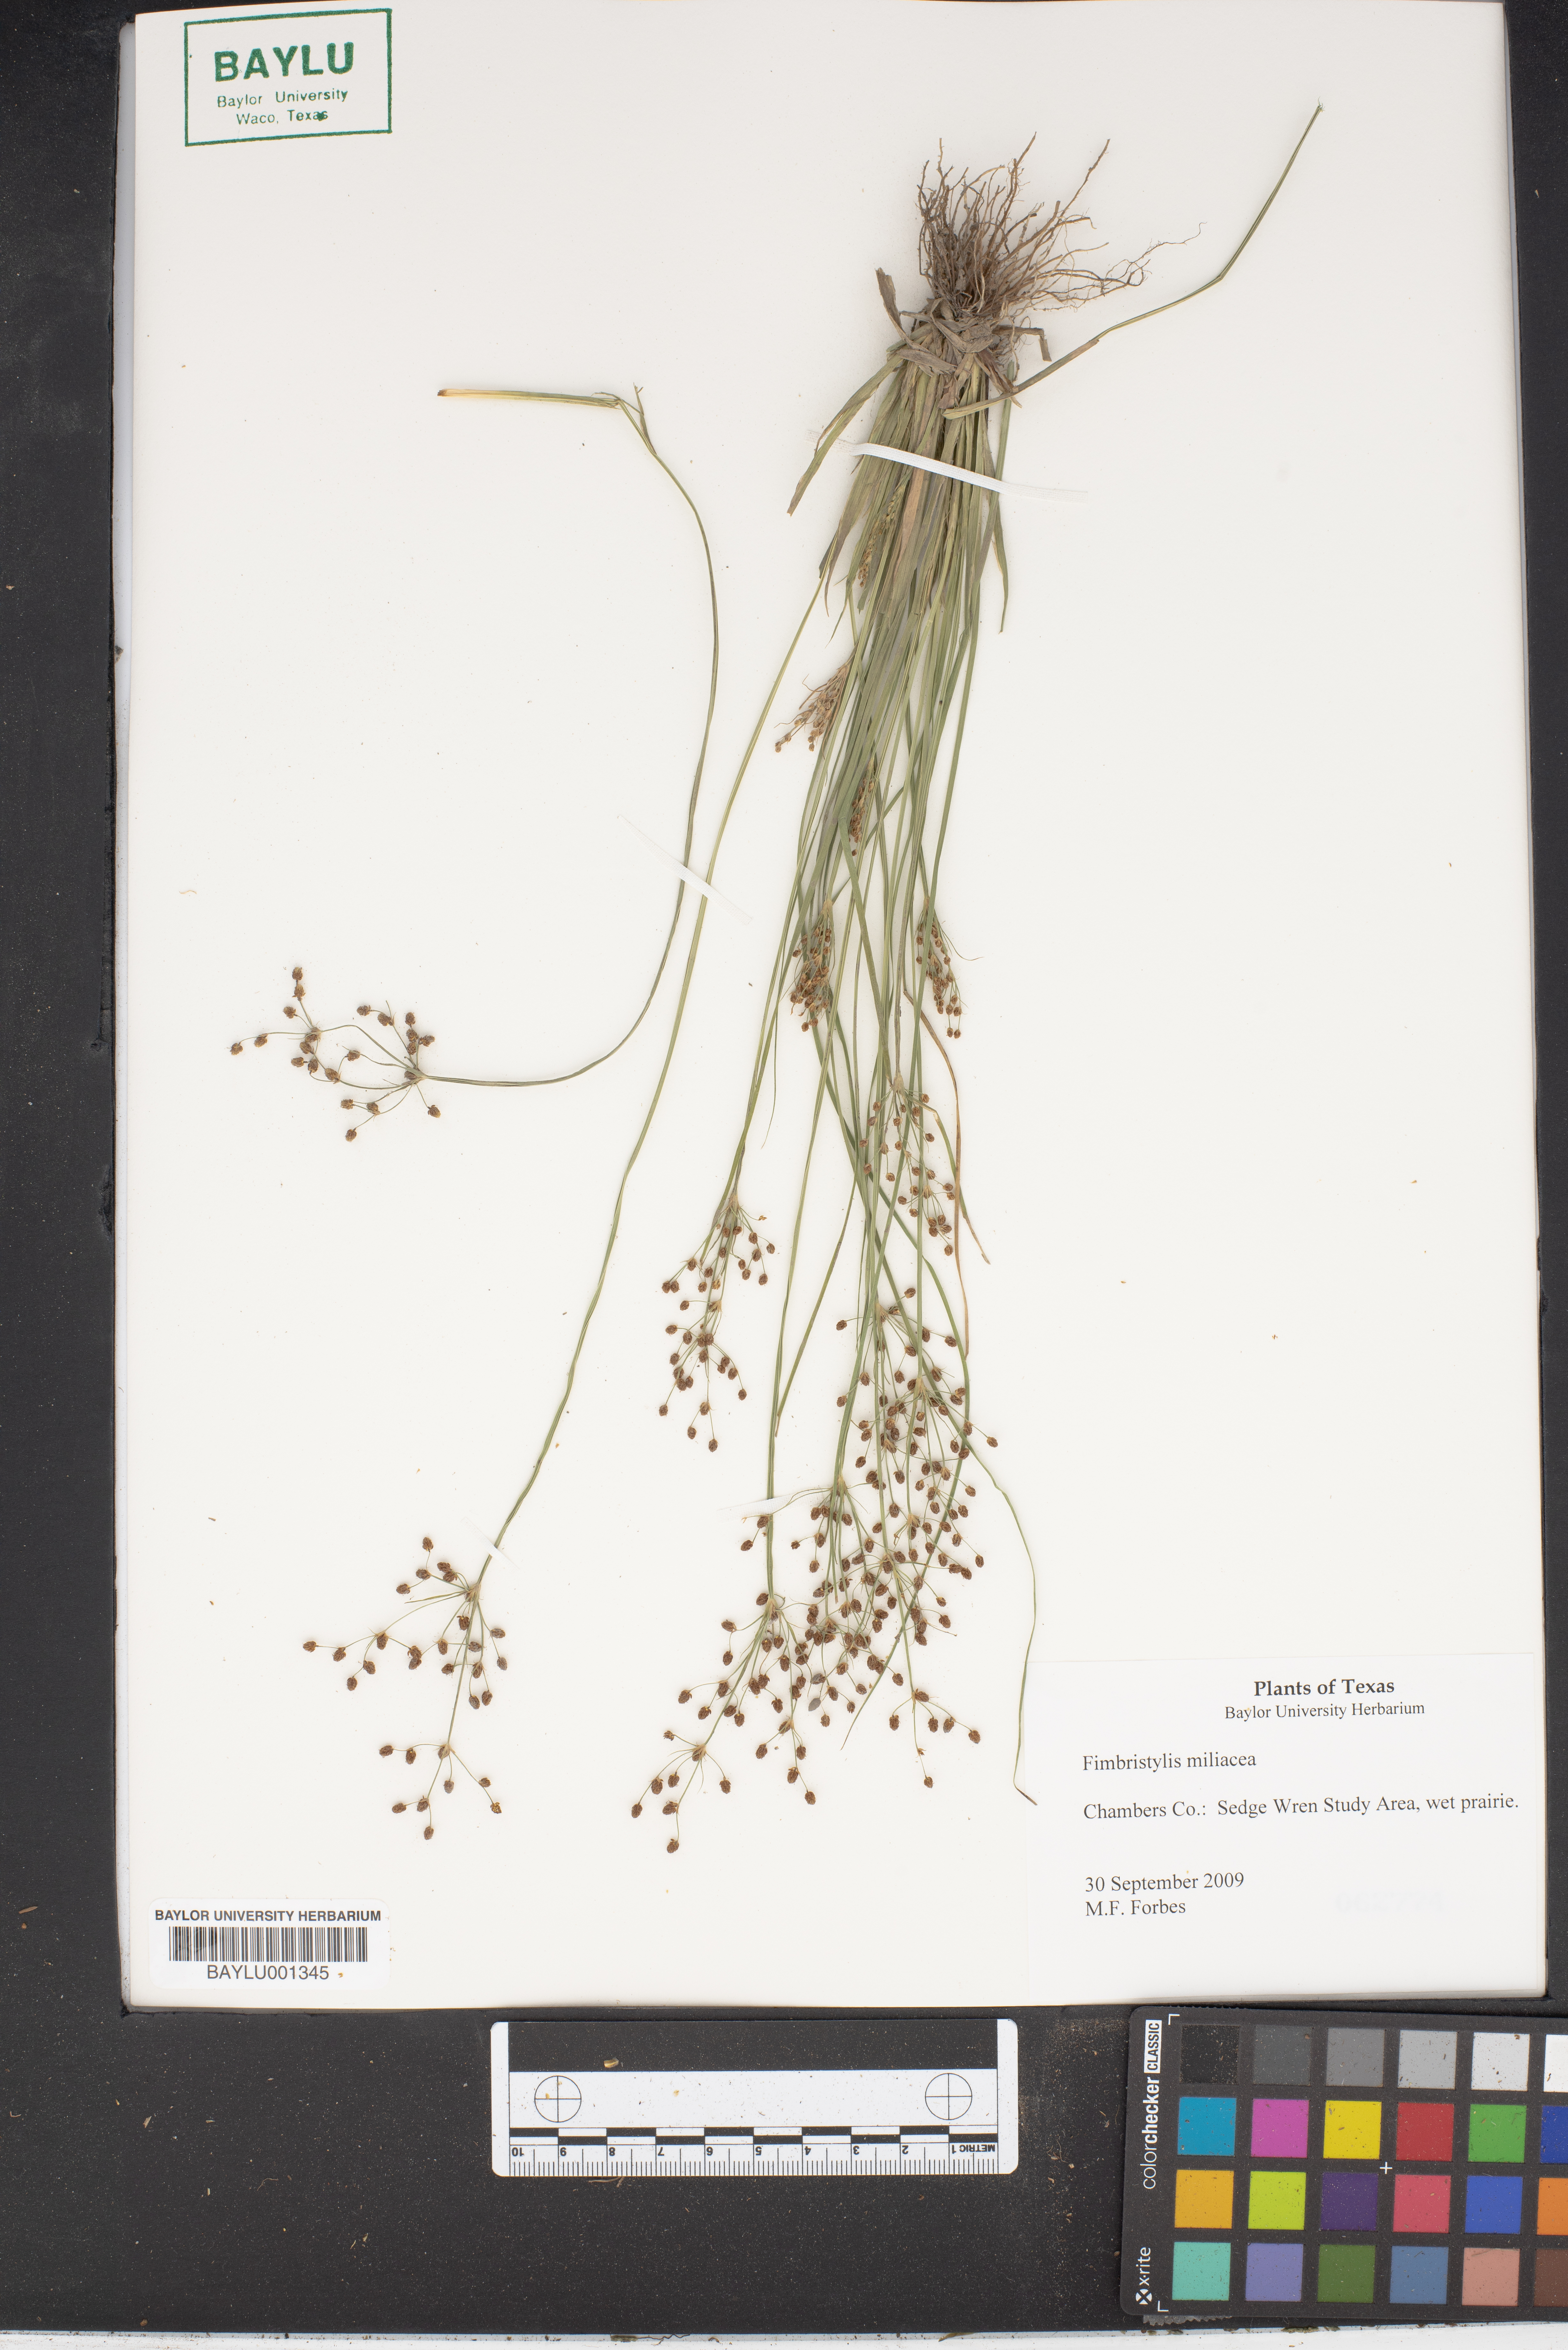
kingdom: Plantae
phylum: Tracheophyta
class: Liliopsida
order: Poales
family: Cyperaceae
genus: Fimbristylis
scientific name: Fimbristylis quinquangularis
